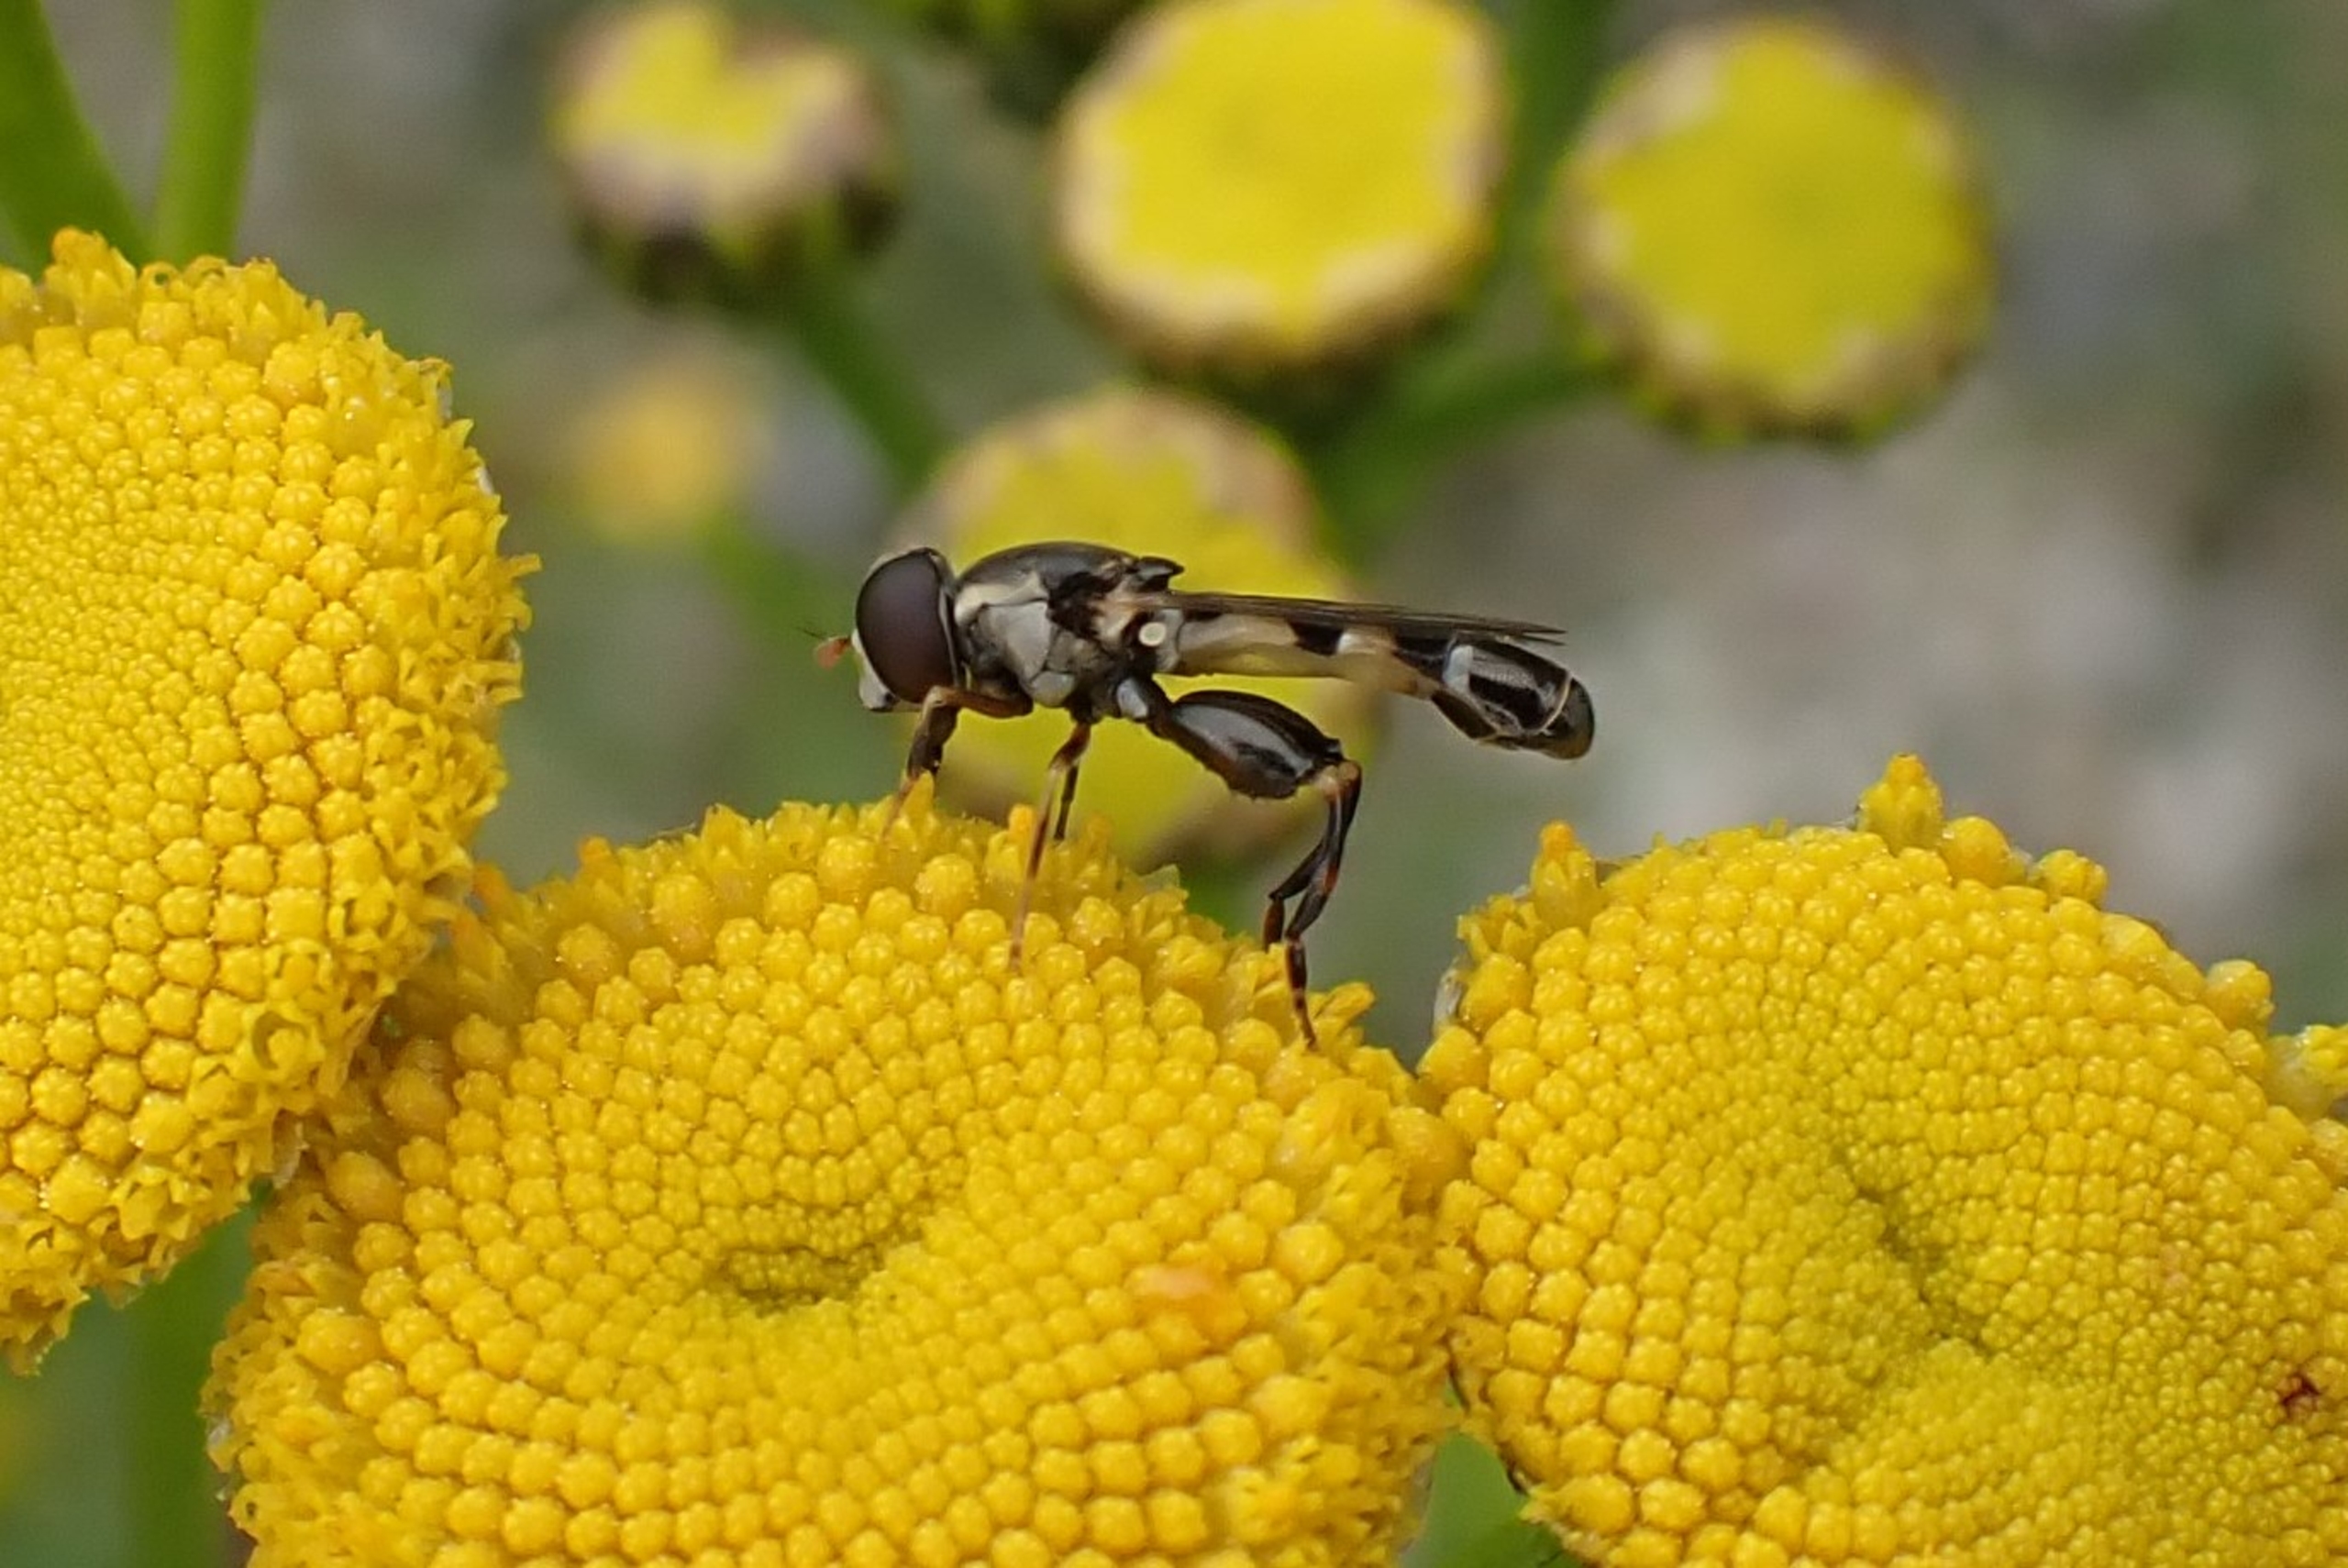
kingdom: Animalia
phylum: Arthropoda
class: Insecta
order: Diptera
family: Syrphidae
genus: Syritta
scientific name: Syritta pipiens
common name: Kompost-svirreflue
